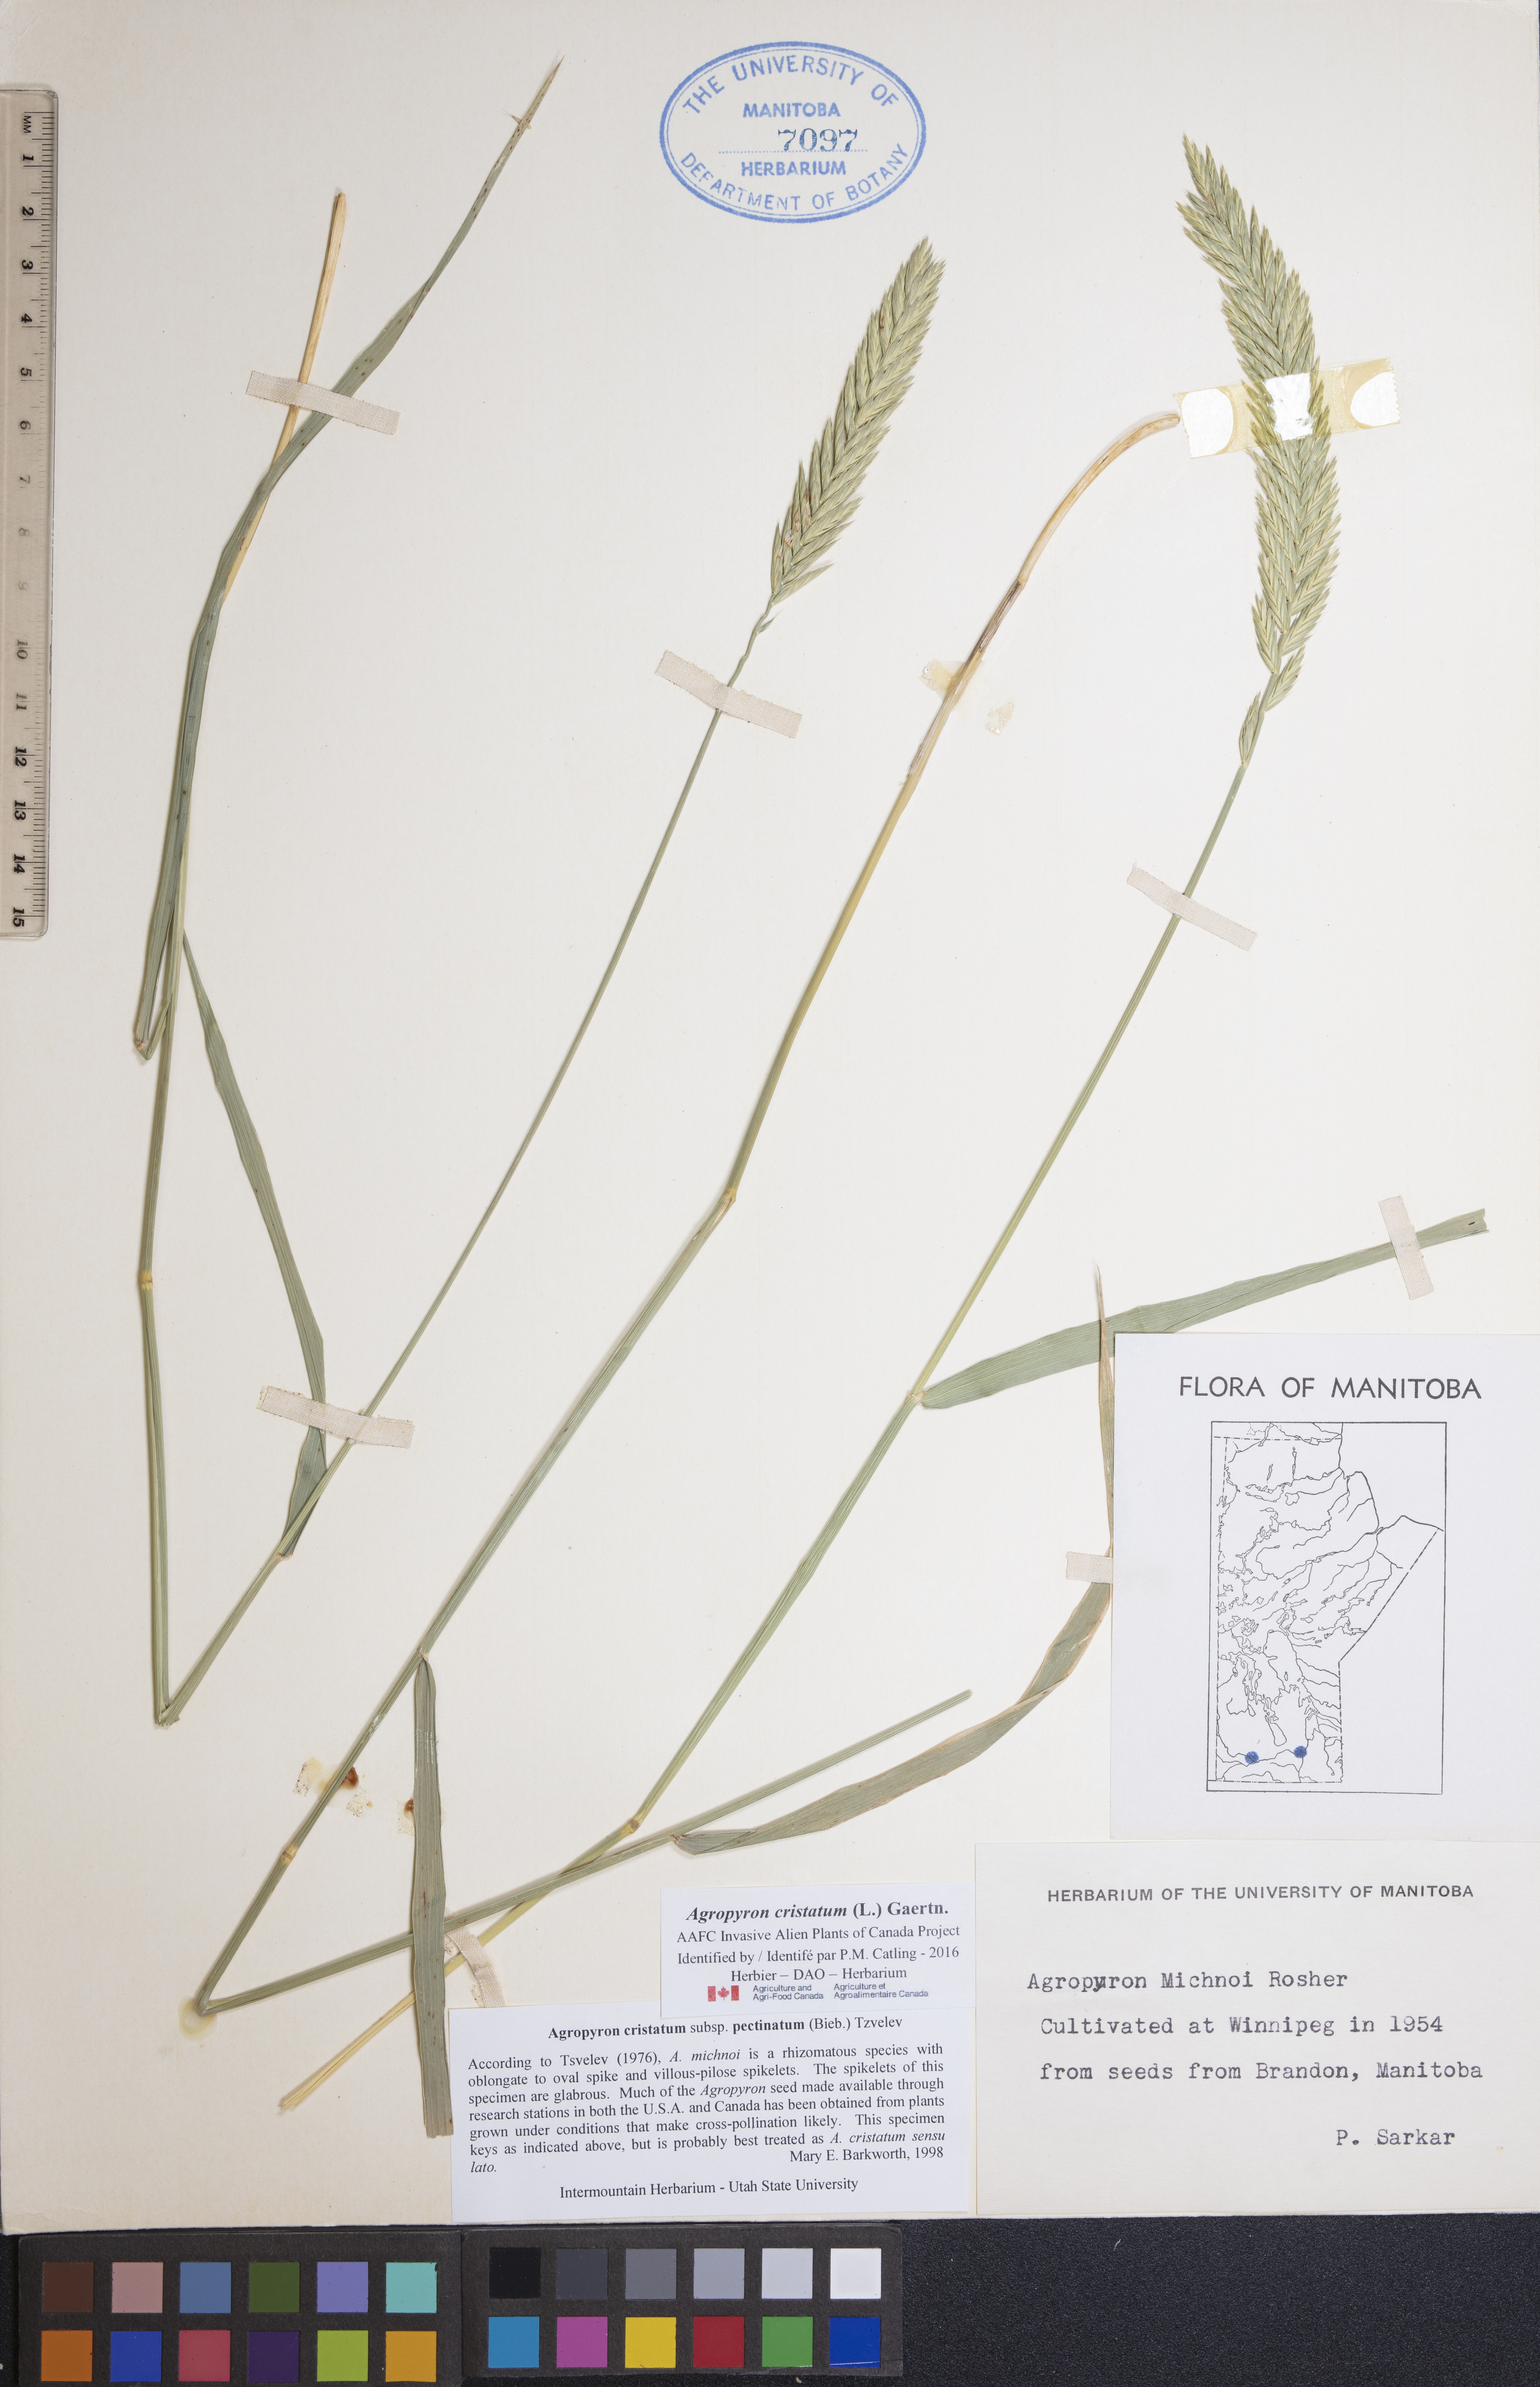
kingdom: Plantae
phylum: Tracheophyta
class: Liliopsida
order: Poales
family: Poaceae
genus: Agropyron
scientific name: Agropyron cristatum
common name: Crested wheatgrass
